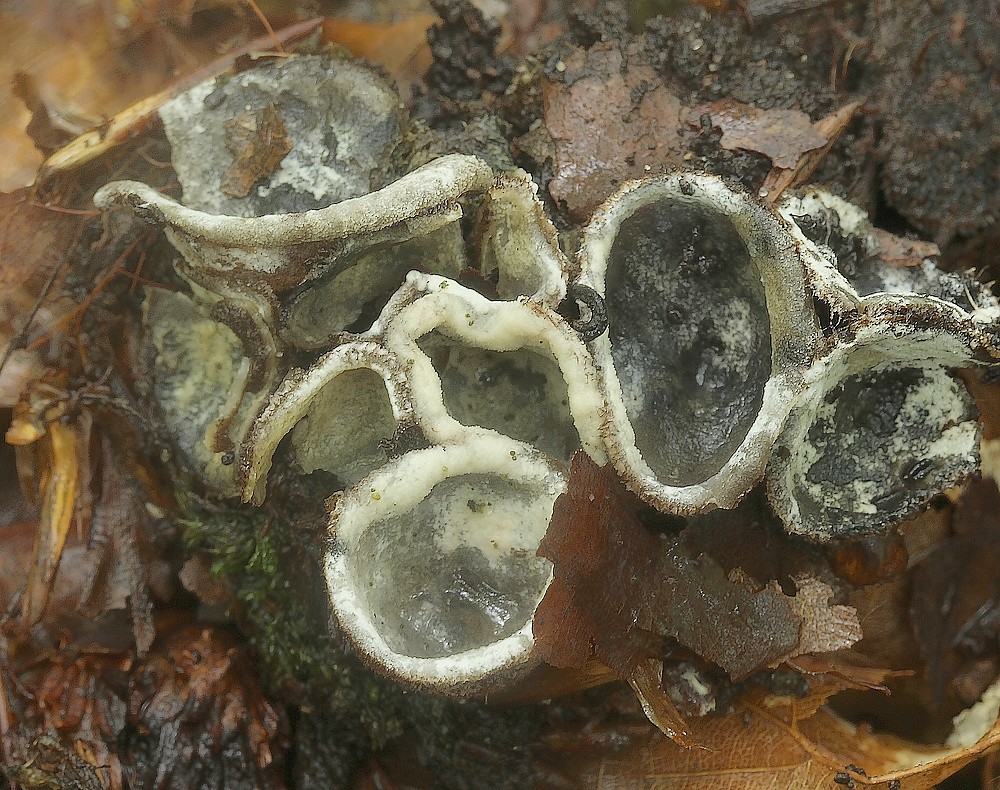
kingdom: Fungi
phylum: Ascomycota
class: Sordariomycetes
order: Hypocreales
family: Hypocreaceae
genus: Hypomyces
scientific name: Hypomyces stephanomatis
